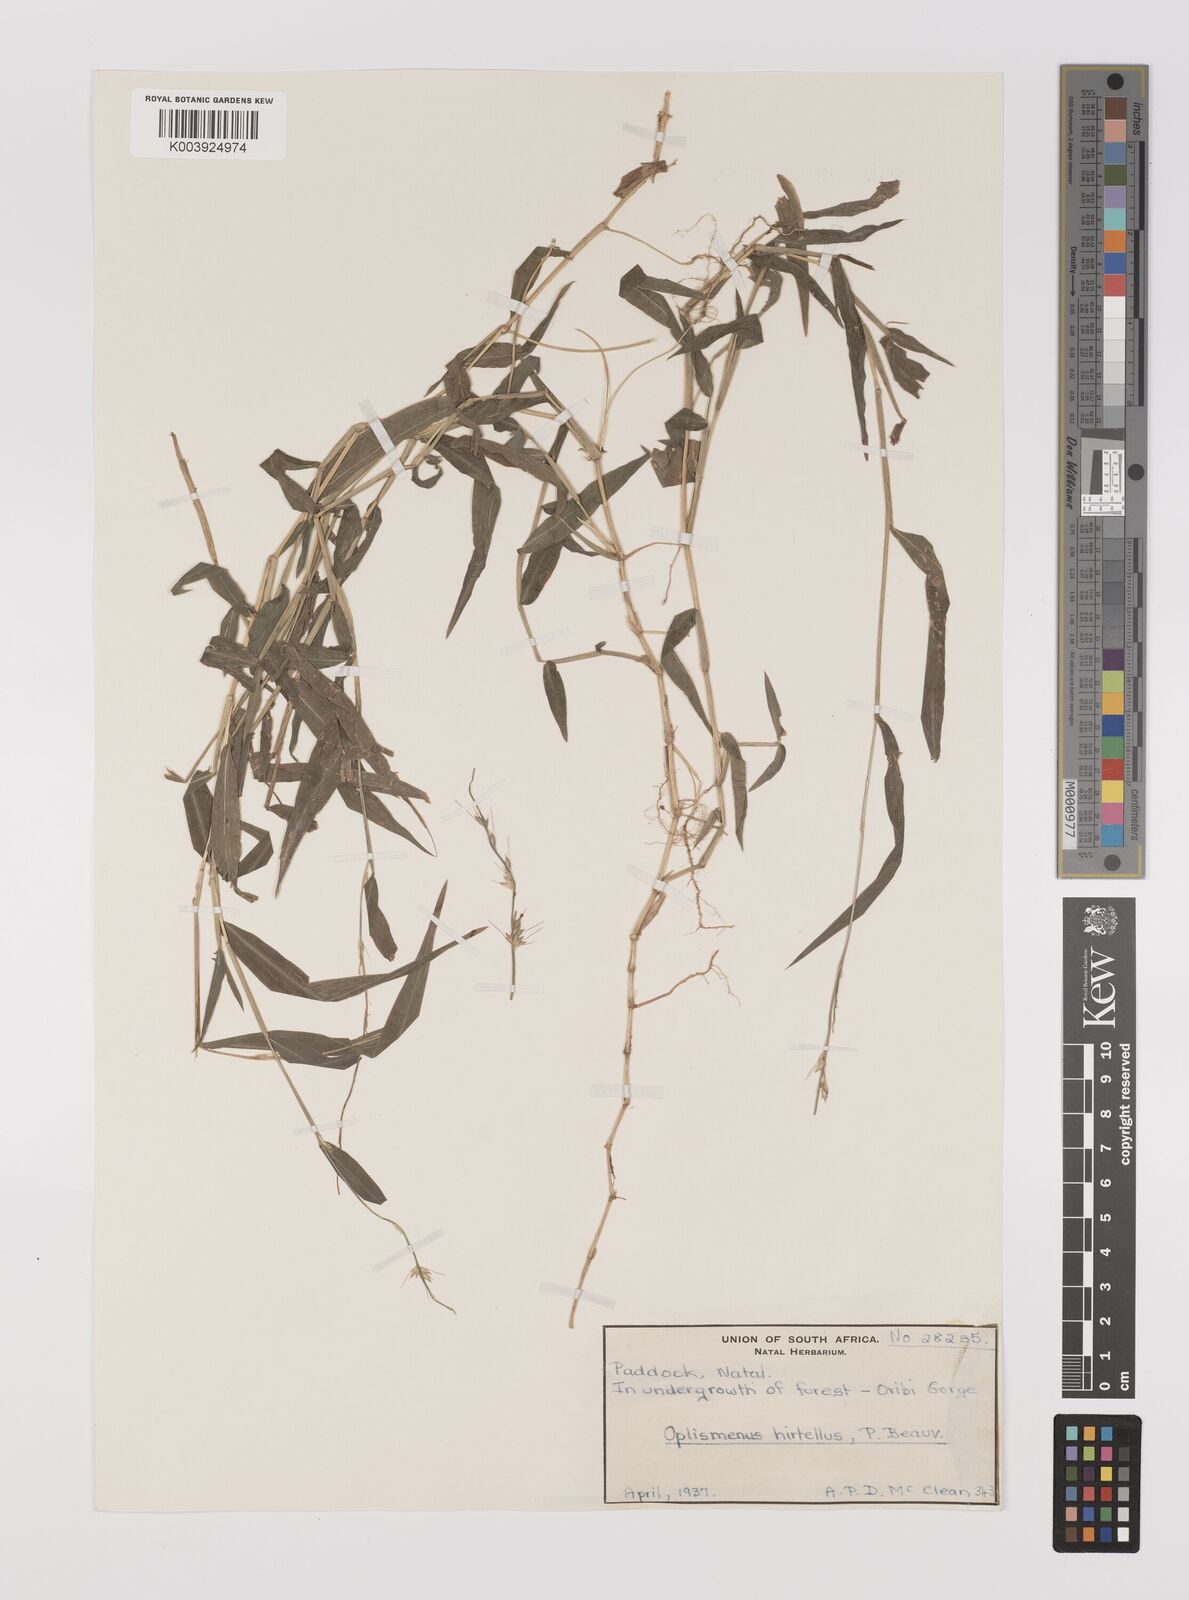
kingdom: Plantae
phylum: Tracheophyta
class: Liliopsida
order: Poales
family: Poaceae
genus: Oplismenus
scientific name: Oplismenus hirtellus
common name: Basketgrass
